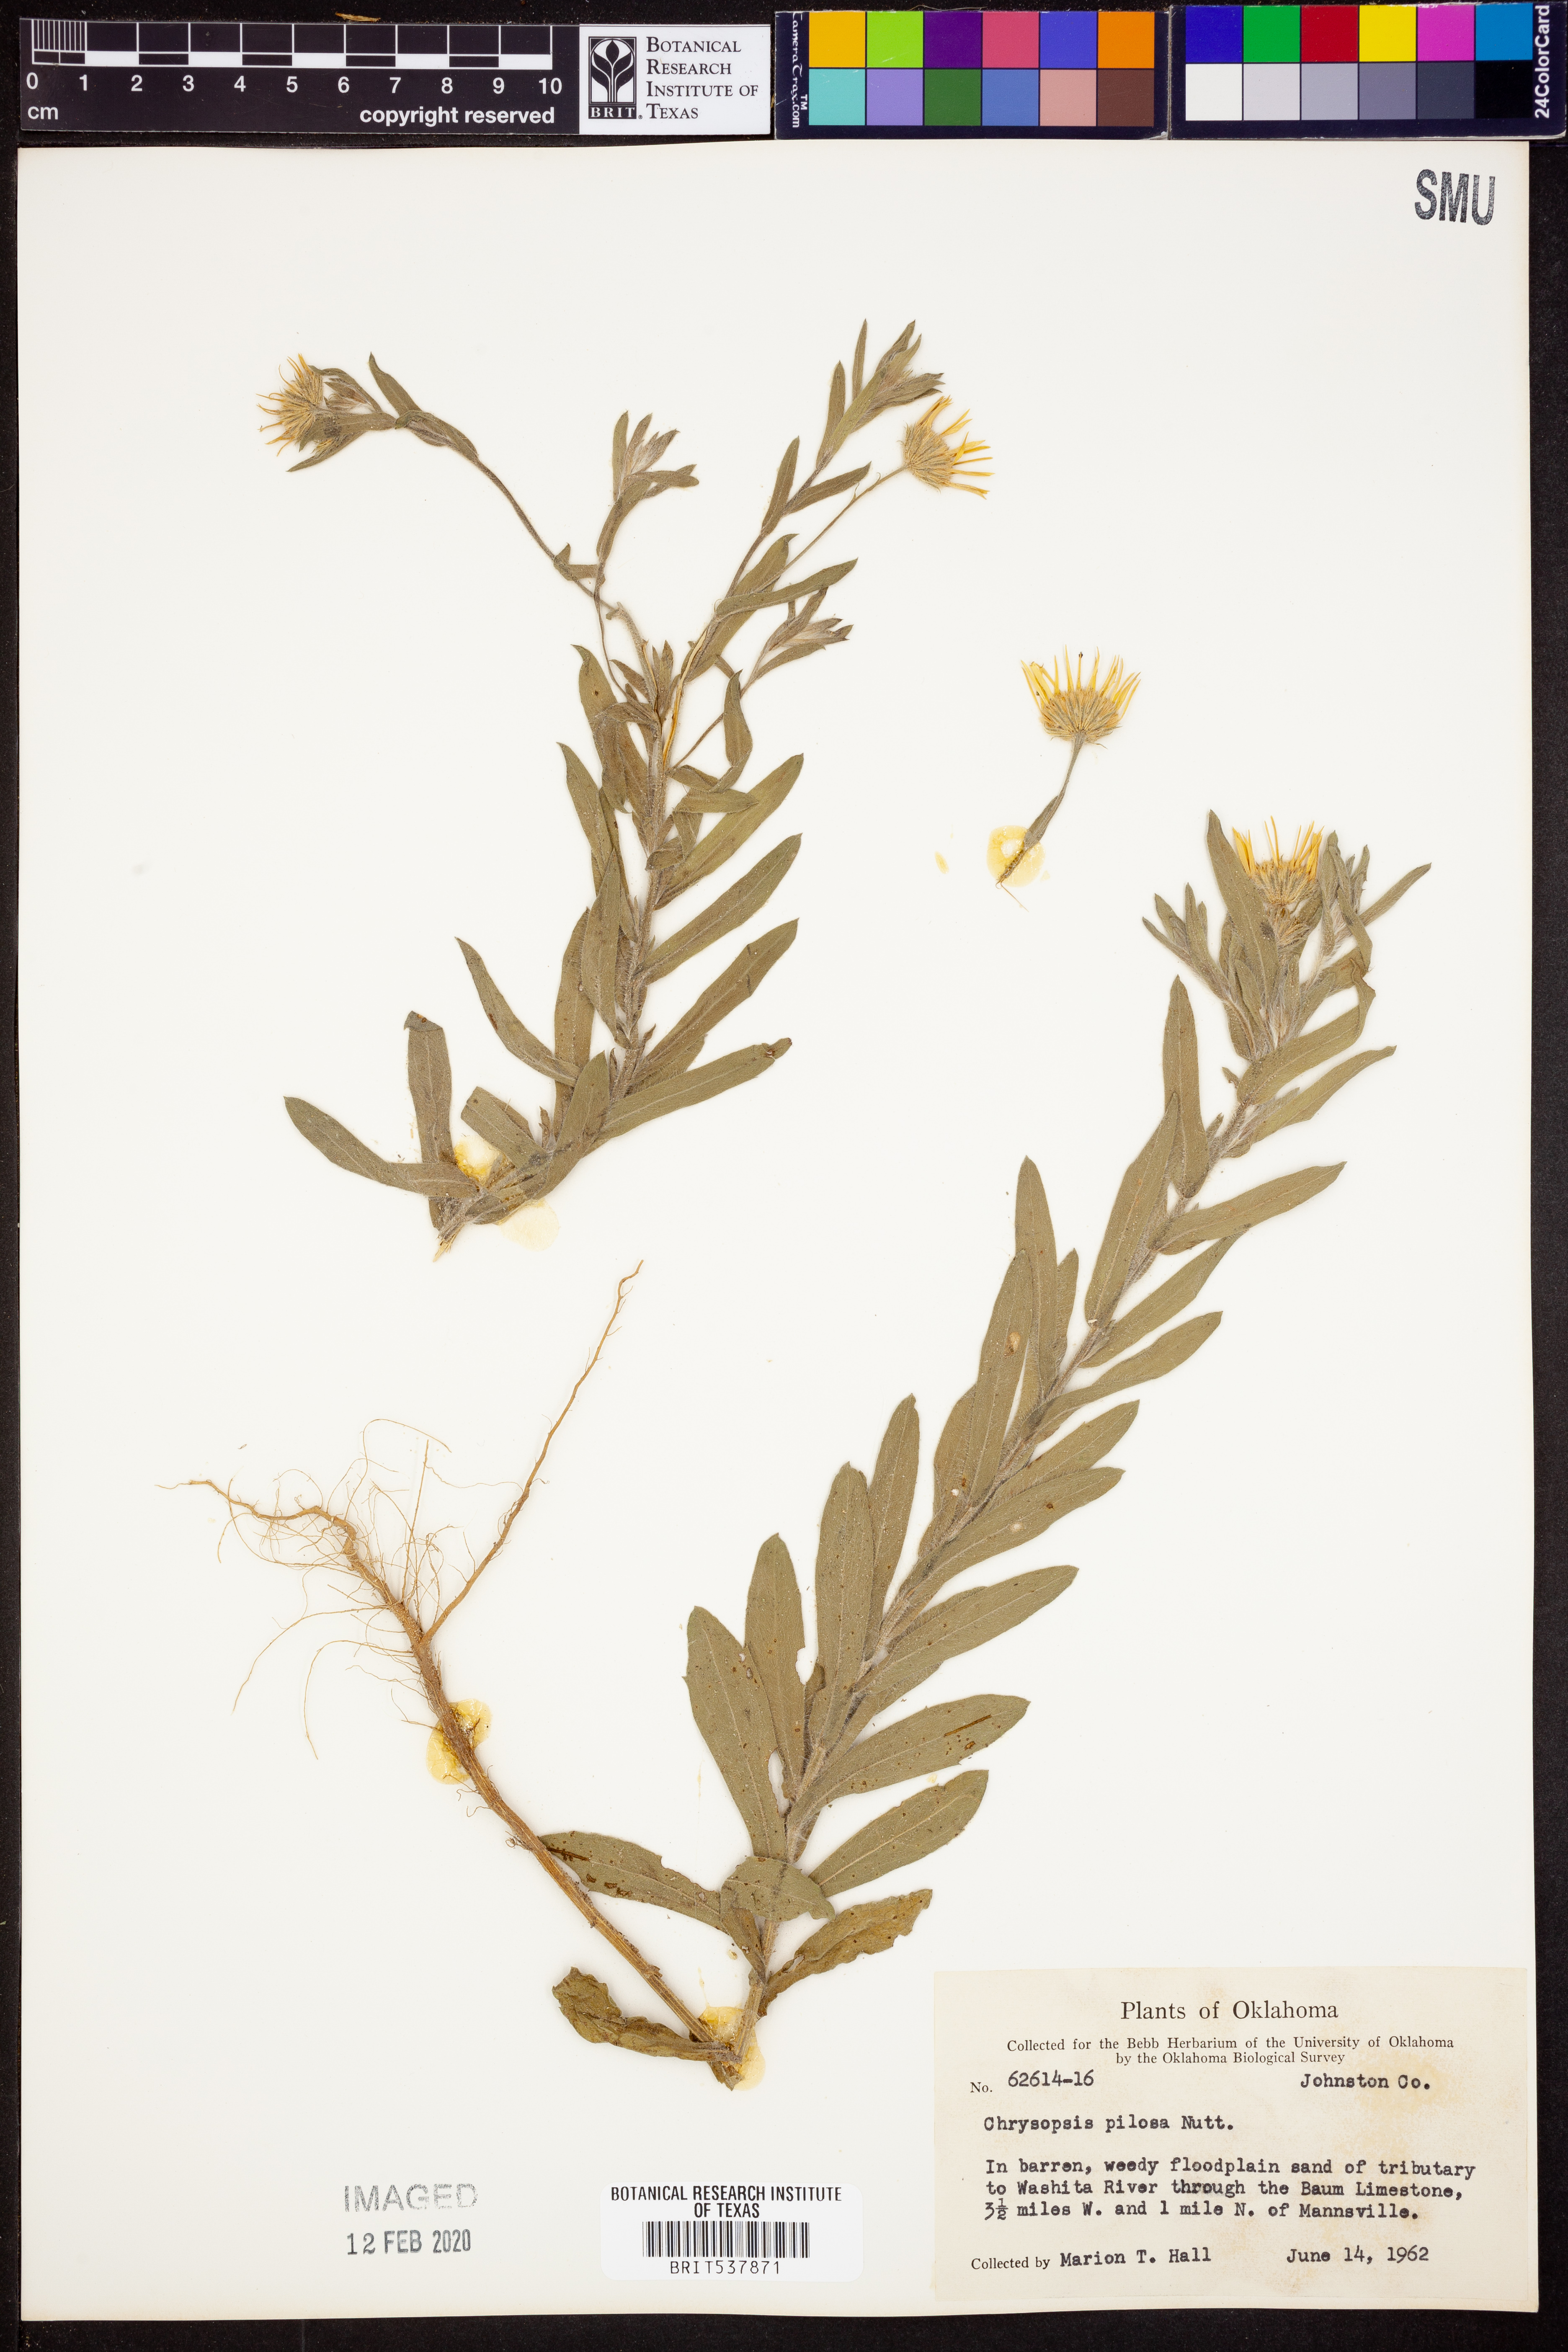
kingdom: Plantae
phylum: Tracheophyta
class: Magnoliopsida
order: Asterales
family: Asteraceae
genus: Bradburia
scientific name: Bradburia pilosa
